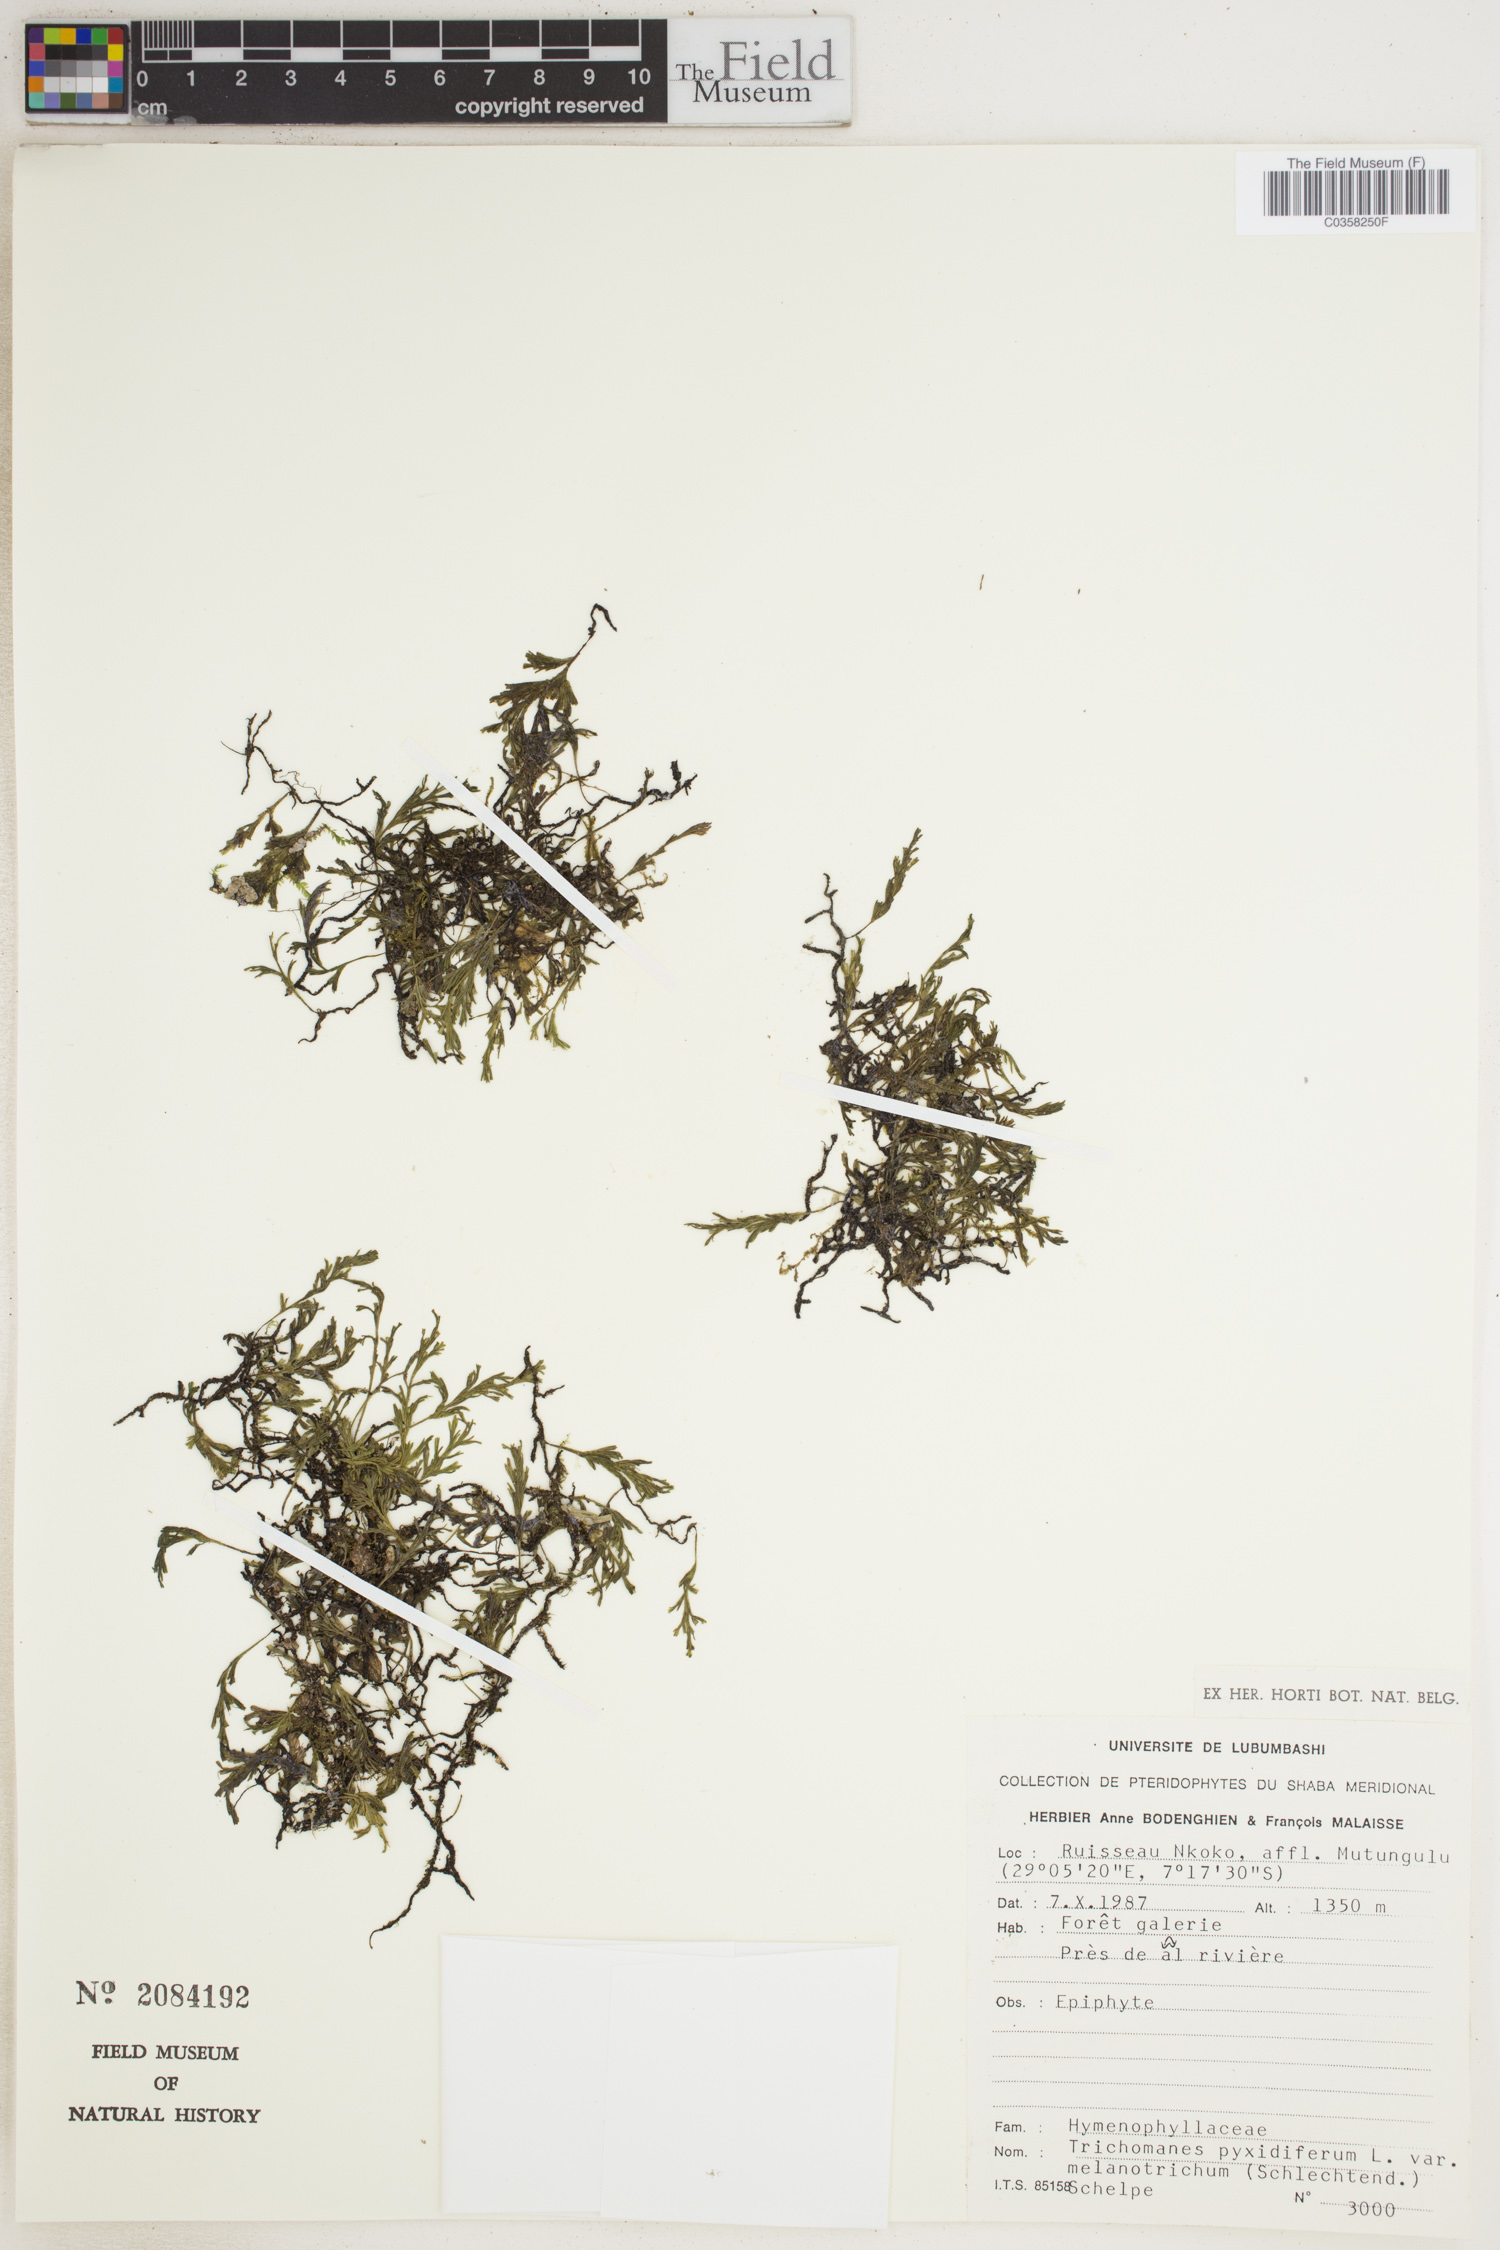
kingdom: Plantae
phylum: Tracheophyta
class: Polypodiopsida
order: Hymenophyllales
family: Hymenophyllaceae
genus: Crepidomanes
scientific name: Crepidomanes melanotrichum
